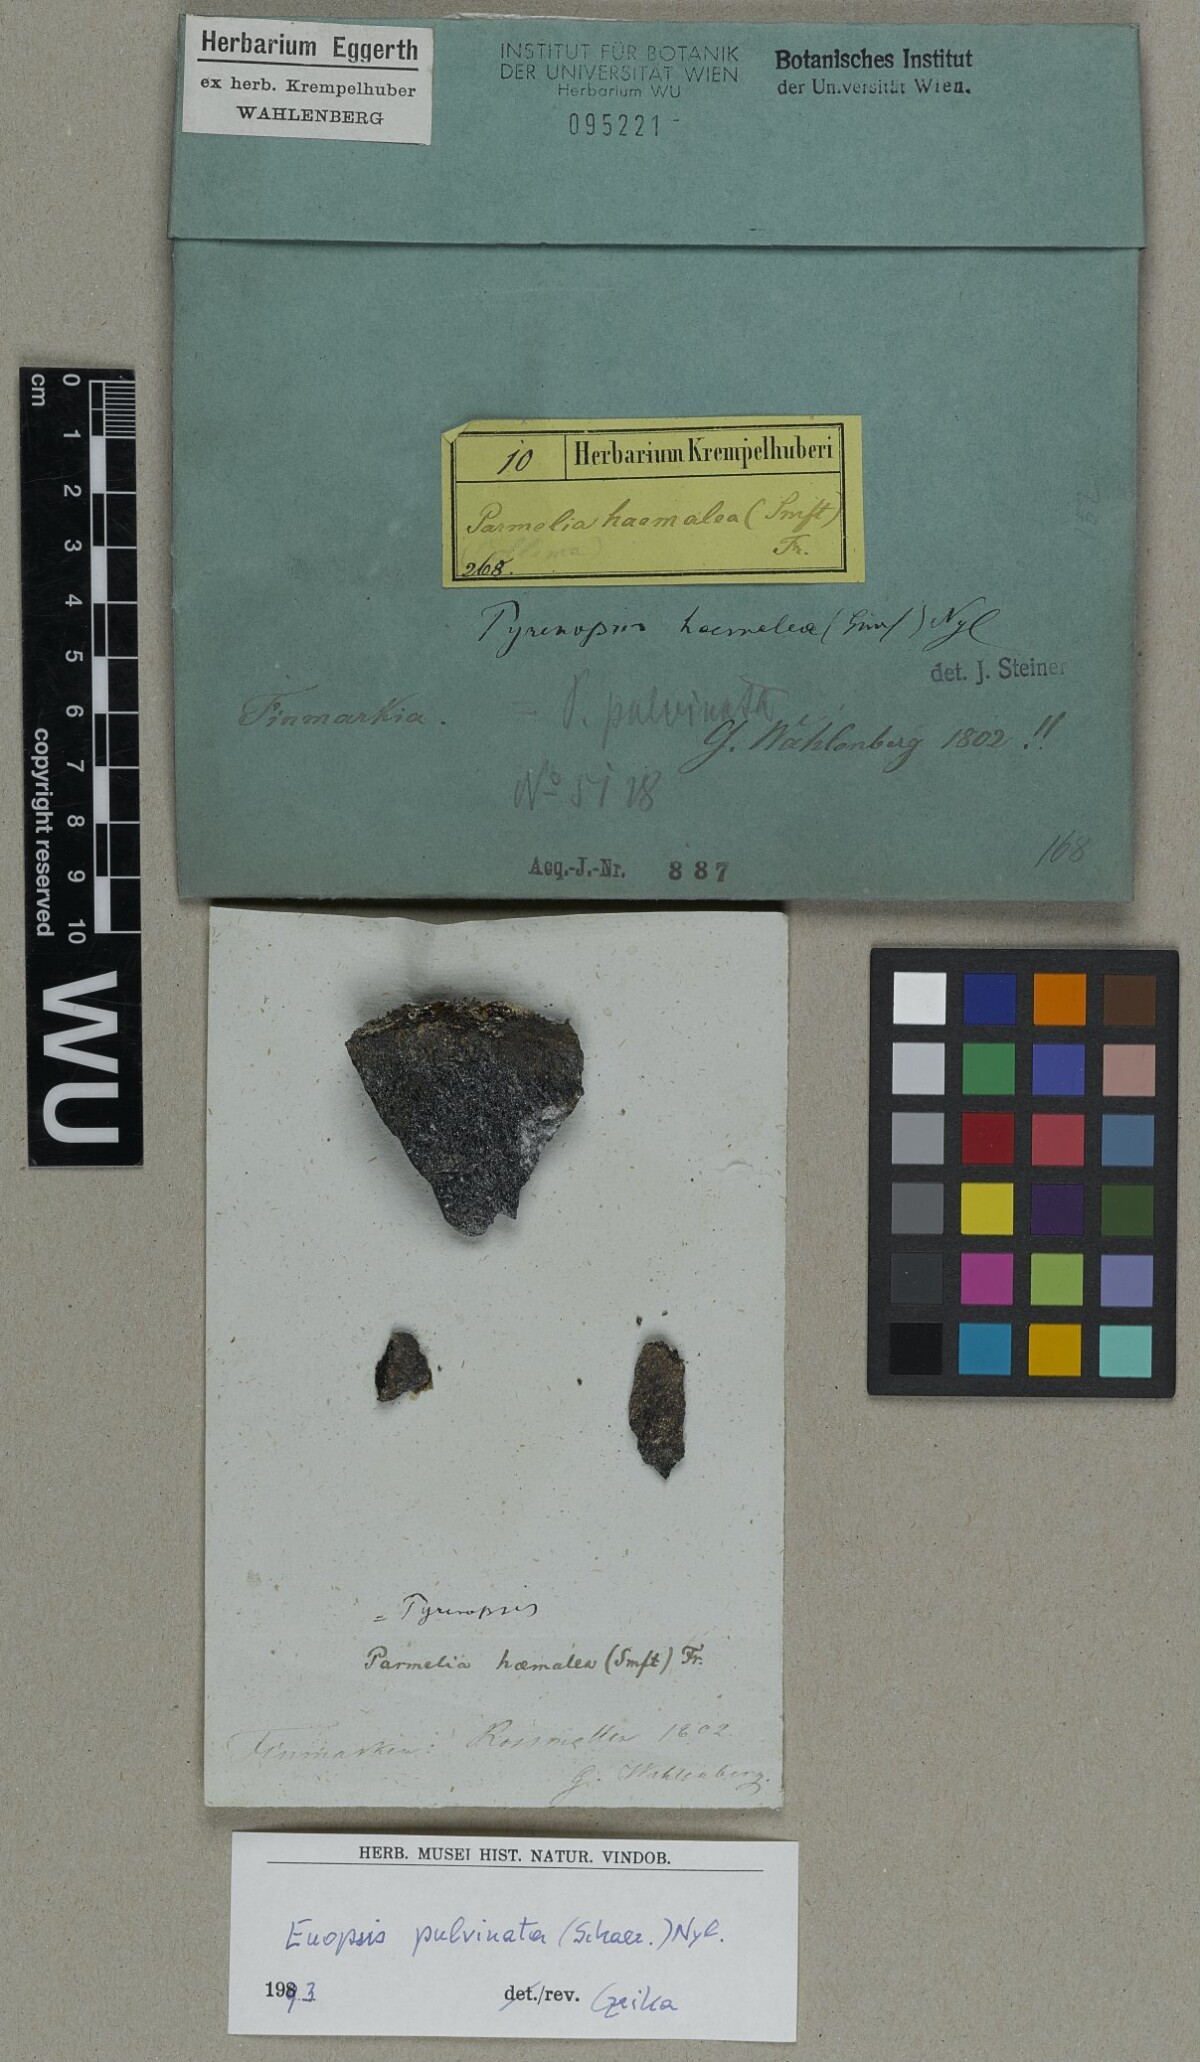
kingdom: Fungi
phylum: Ascomycota
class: Lichinomycetes
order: Lichinales
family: Lichinaceae
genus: Euopsis
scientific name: Euopsis pulvinata
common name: Greater rockbud lichen
